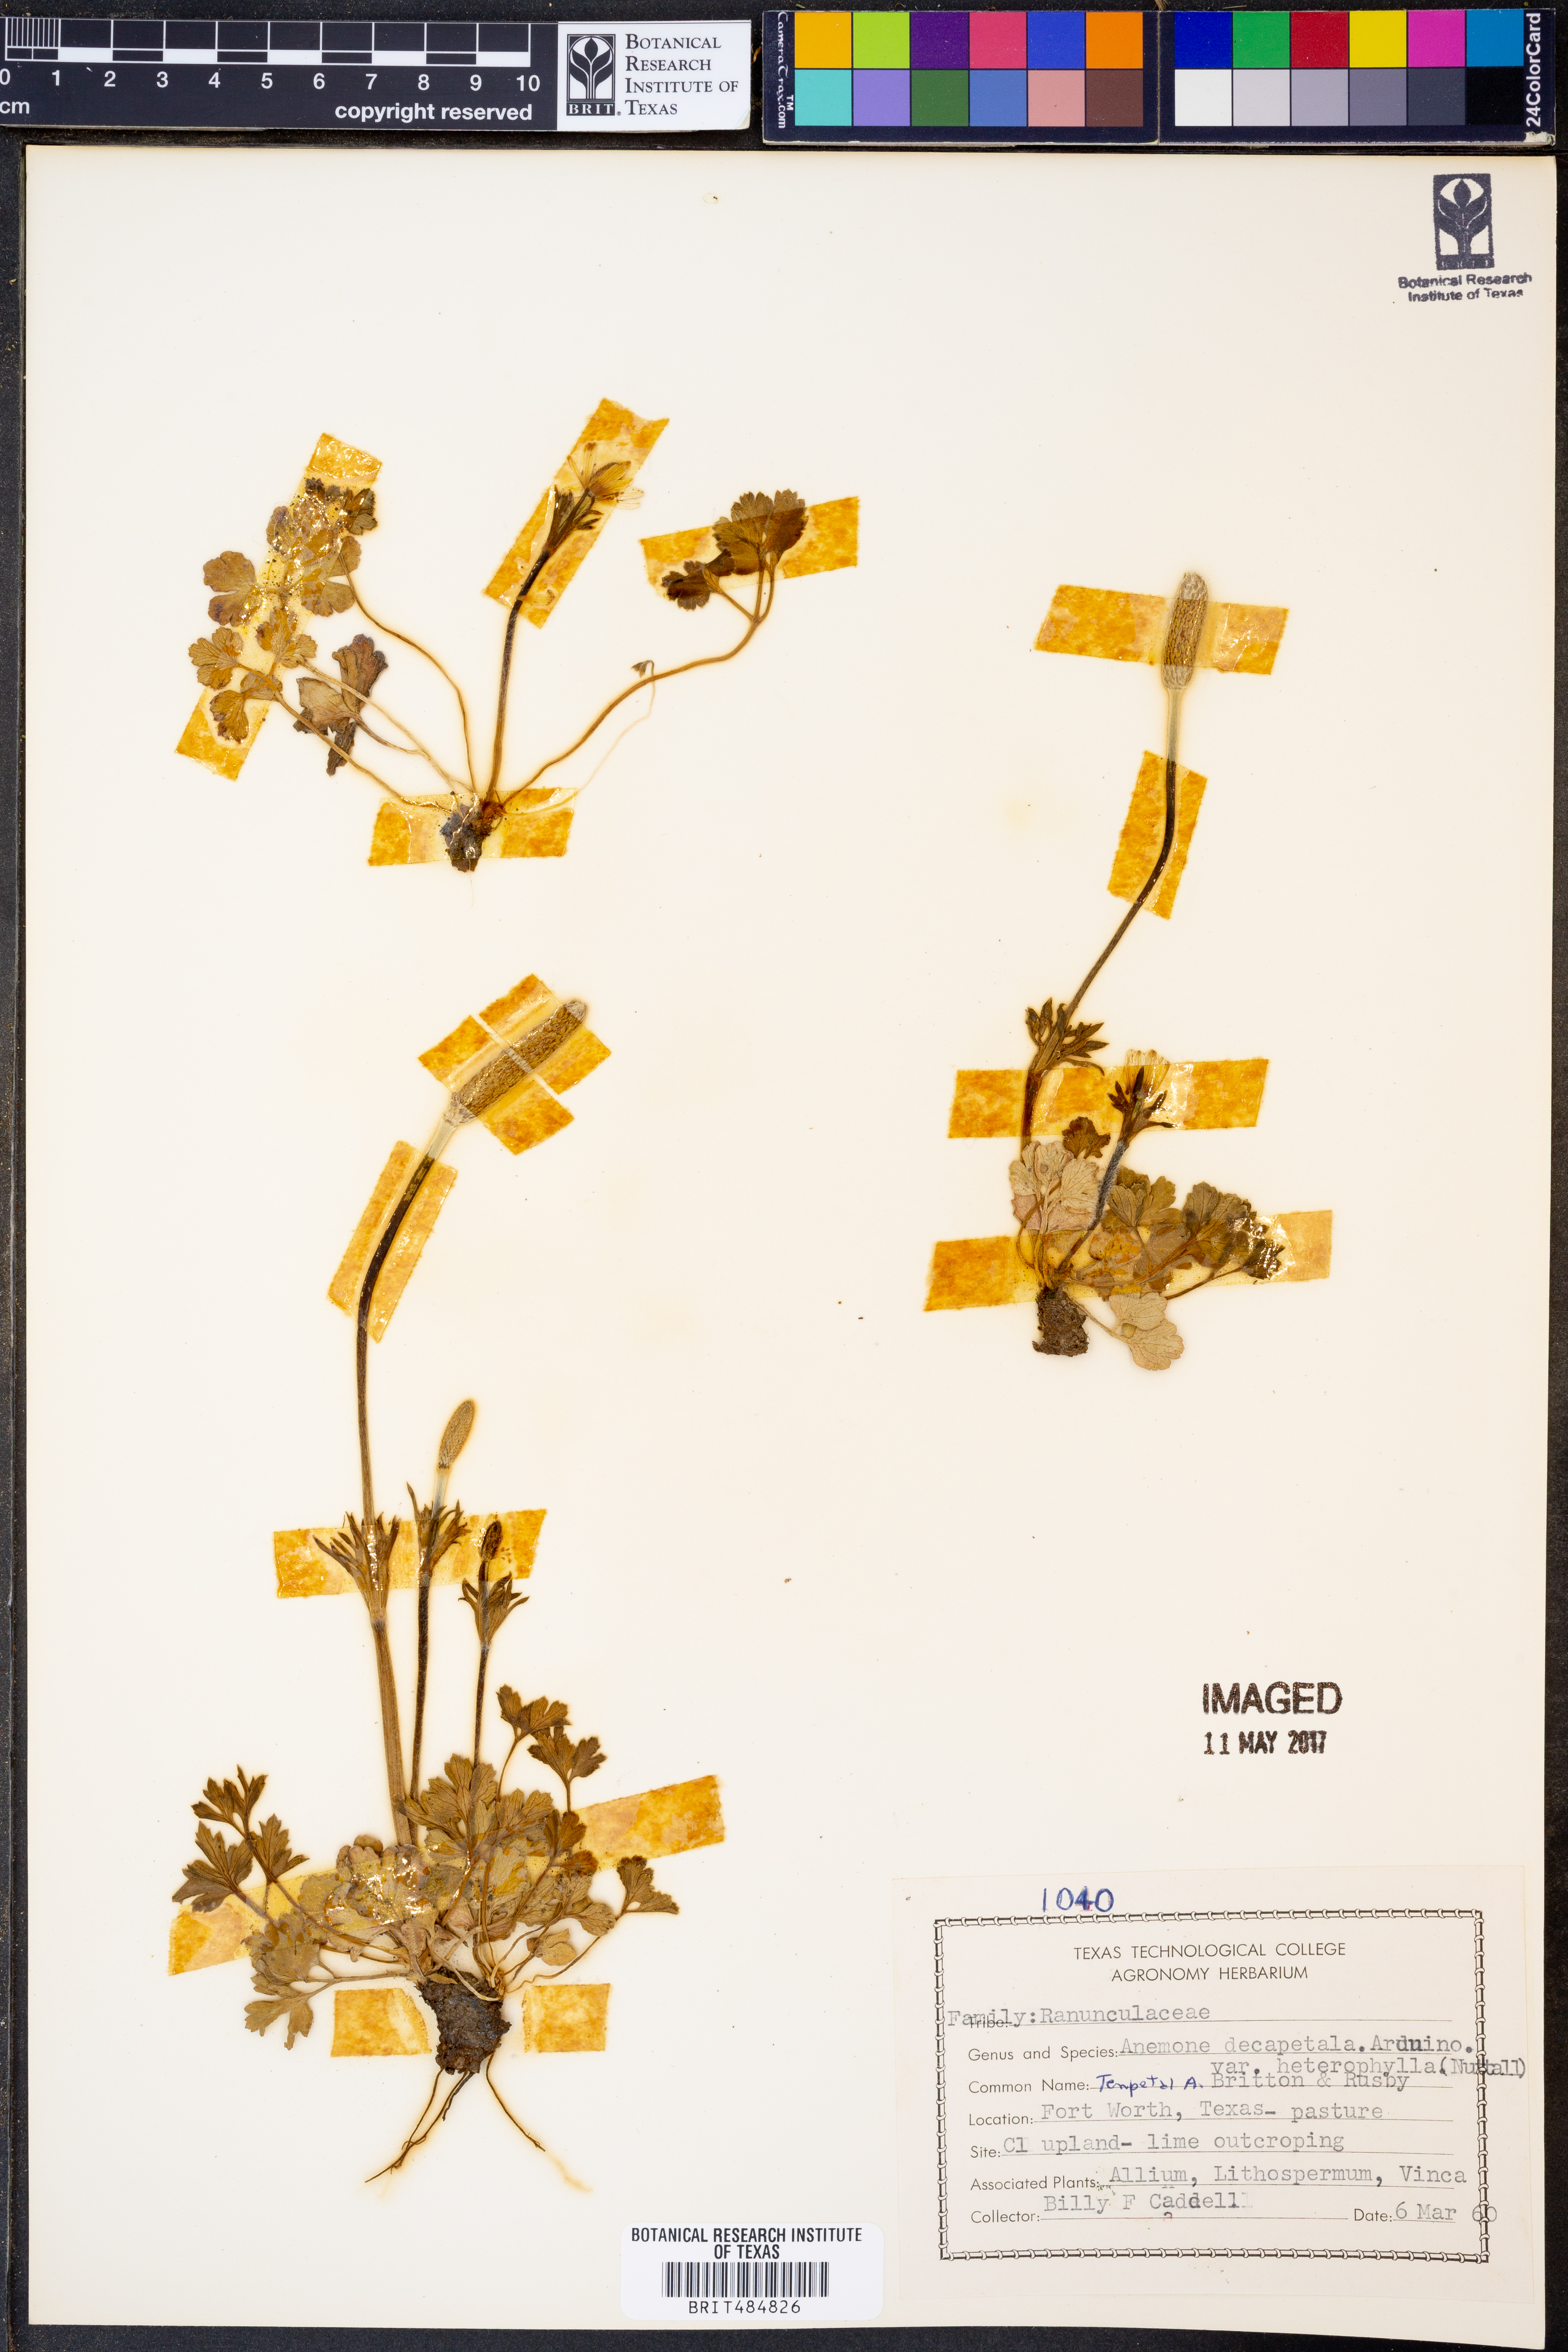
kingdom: Plantae
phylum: Tracheophyta
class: Magnoliopsida
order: Ranunculales
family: Ranunculaceae
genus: Anemone
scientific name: Anemone berlandieri
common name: Ten-petal anemone
